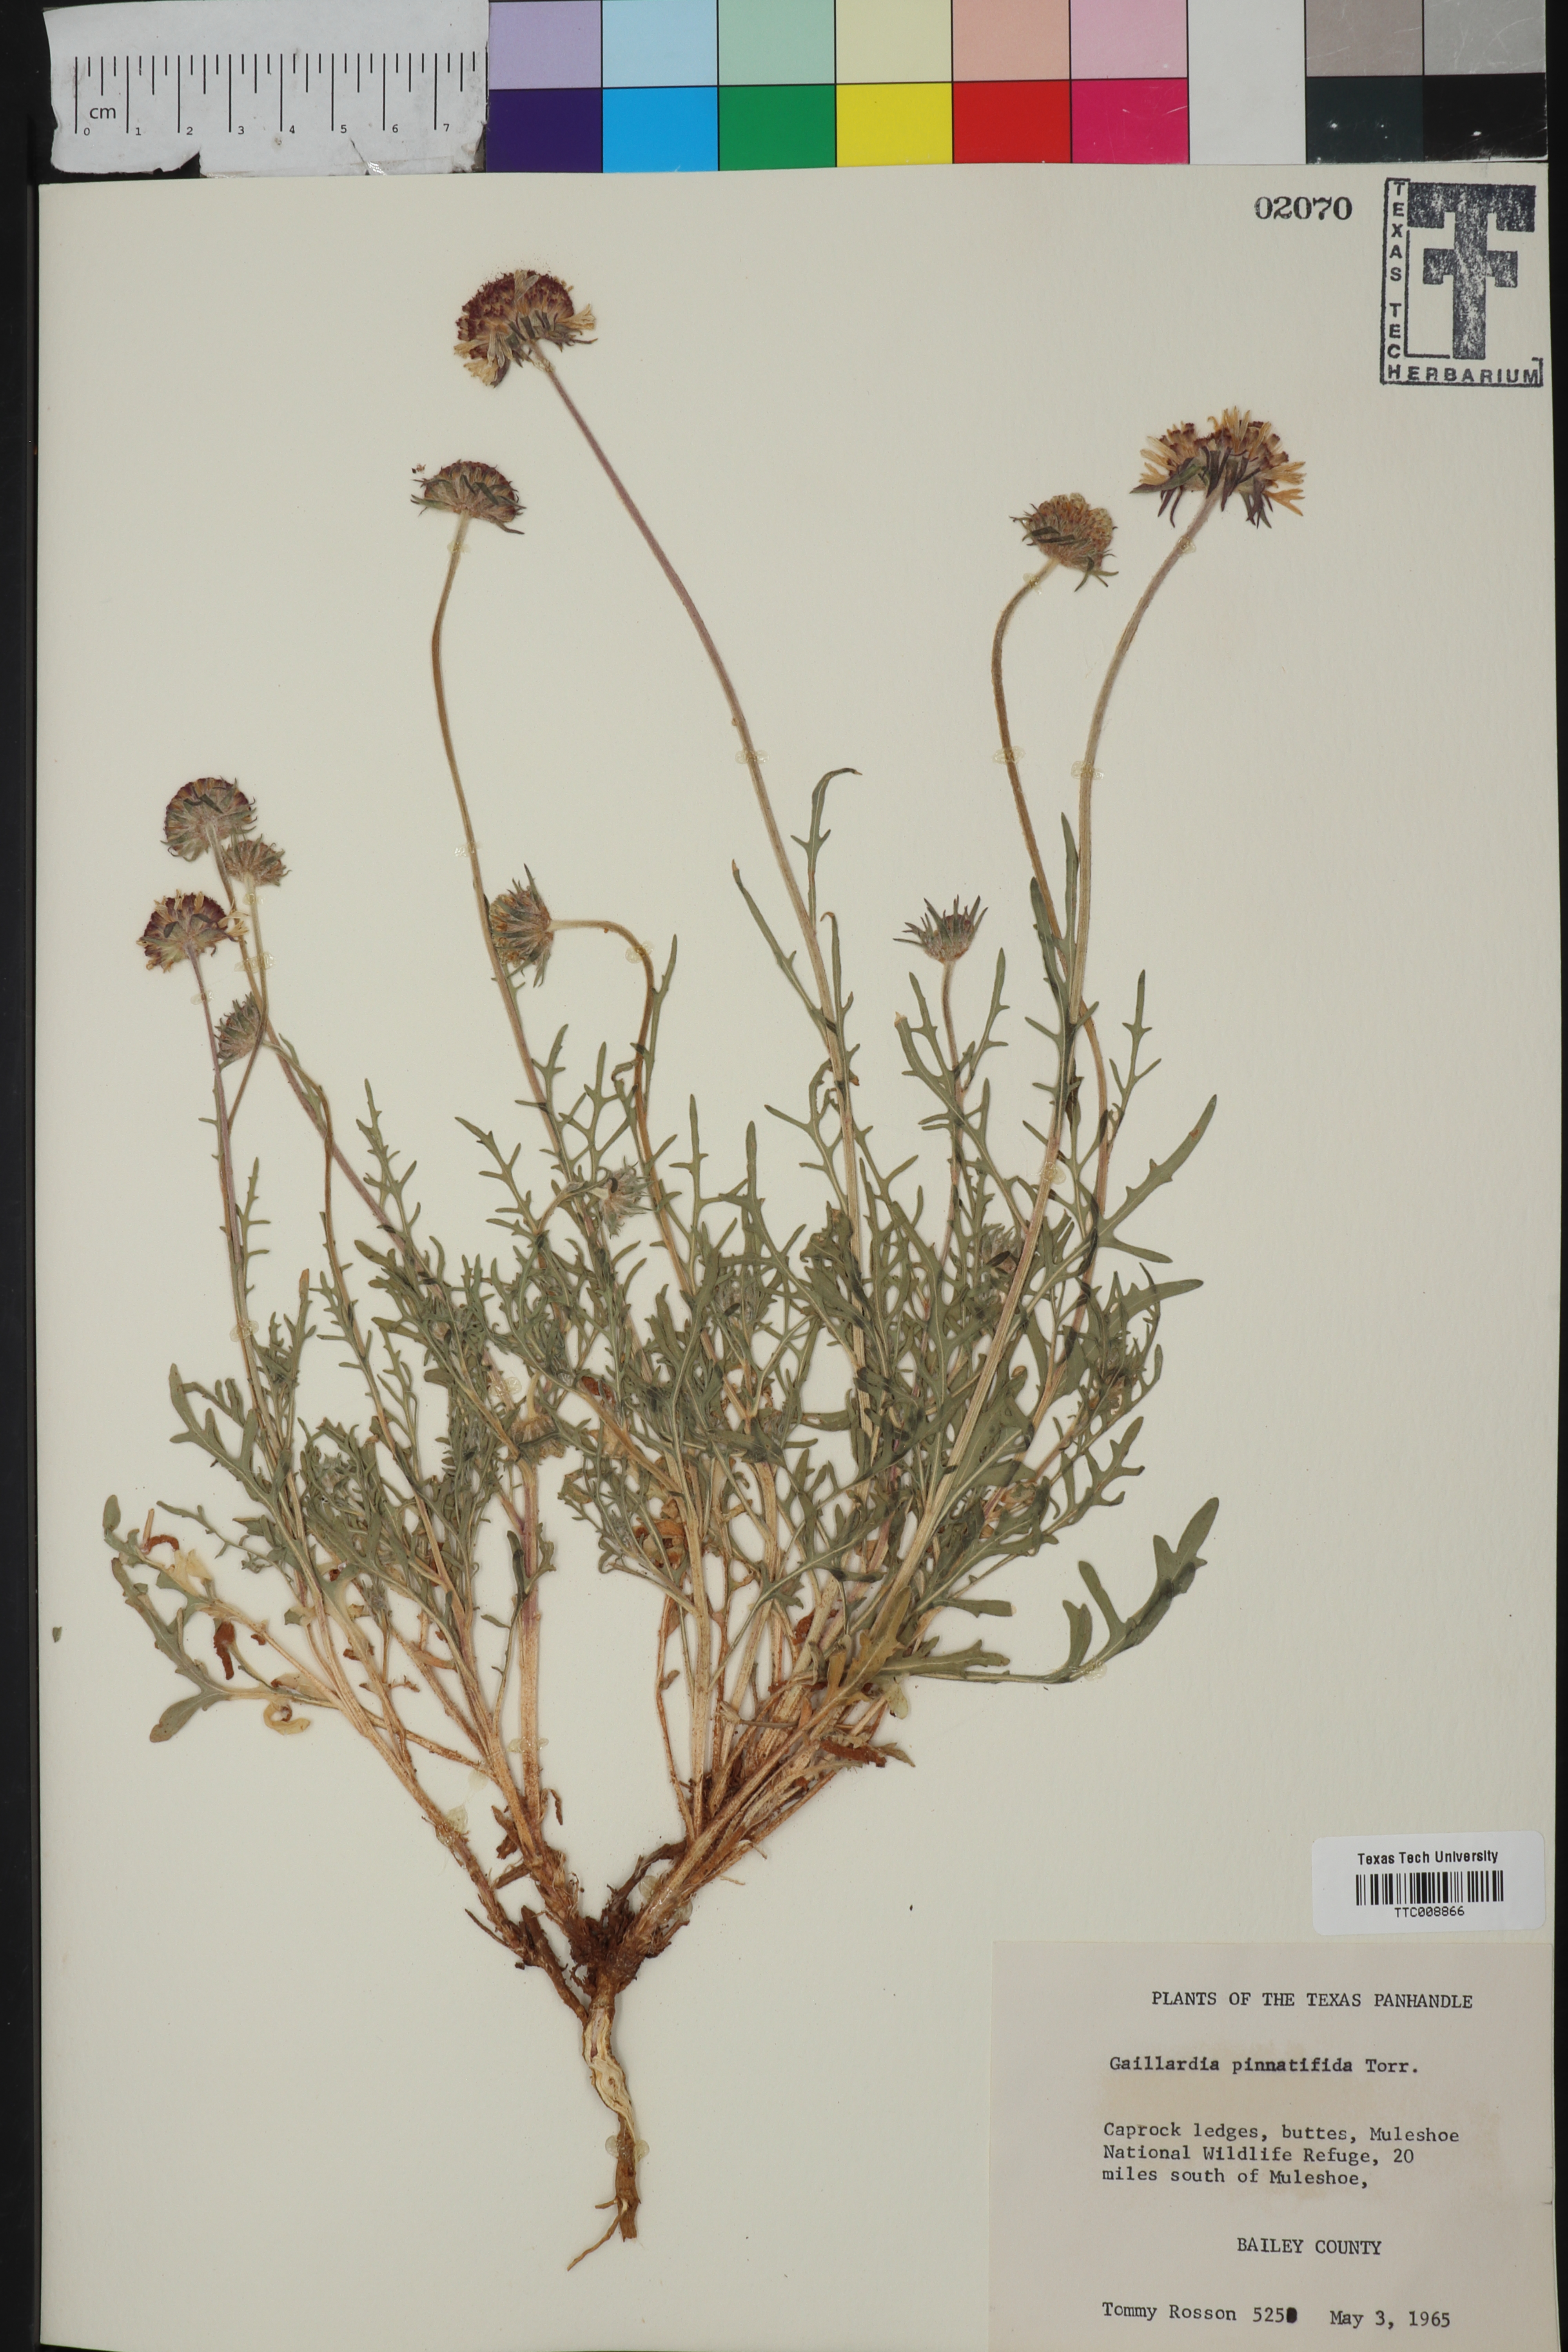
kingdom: Plantae
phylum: Tracheophyta
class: Magnoliopsida
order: Asterales
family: Asteraceae
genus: Gaillardia
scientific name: Gaillardia pinnatifida
